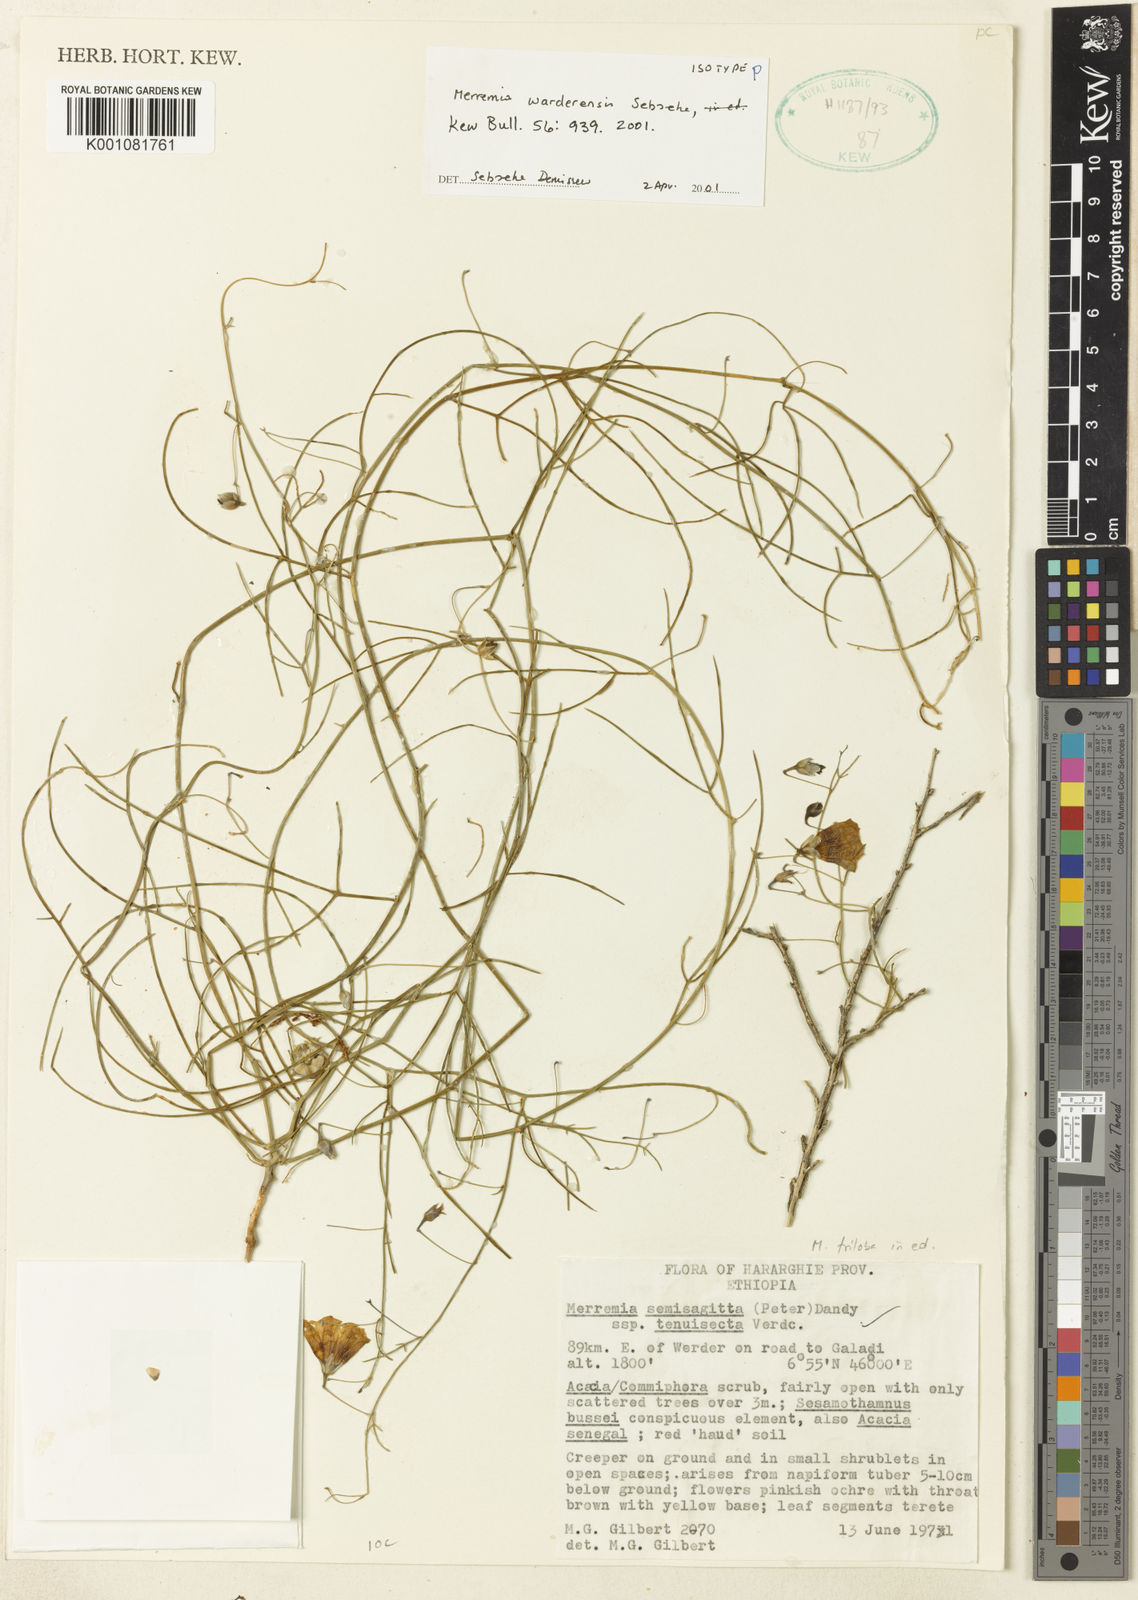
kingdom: Plantae
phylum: Tracheophyta
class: Magnoliopsida
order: Solanales
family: Convolvulaceae
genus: Merremia
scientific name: Merremia warderensis
